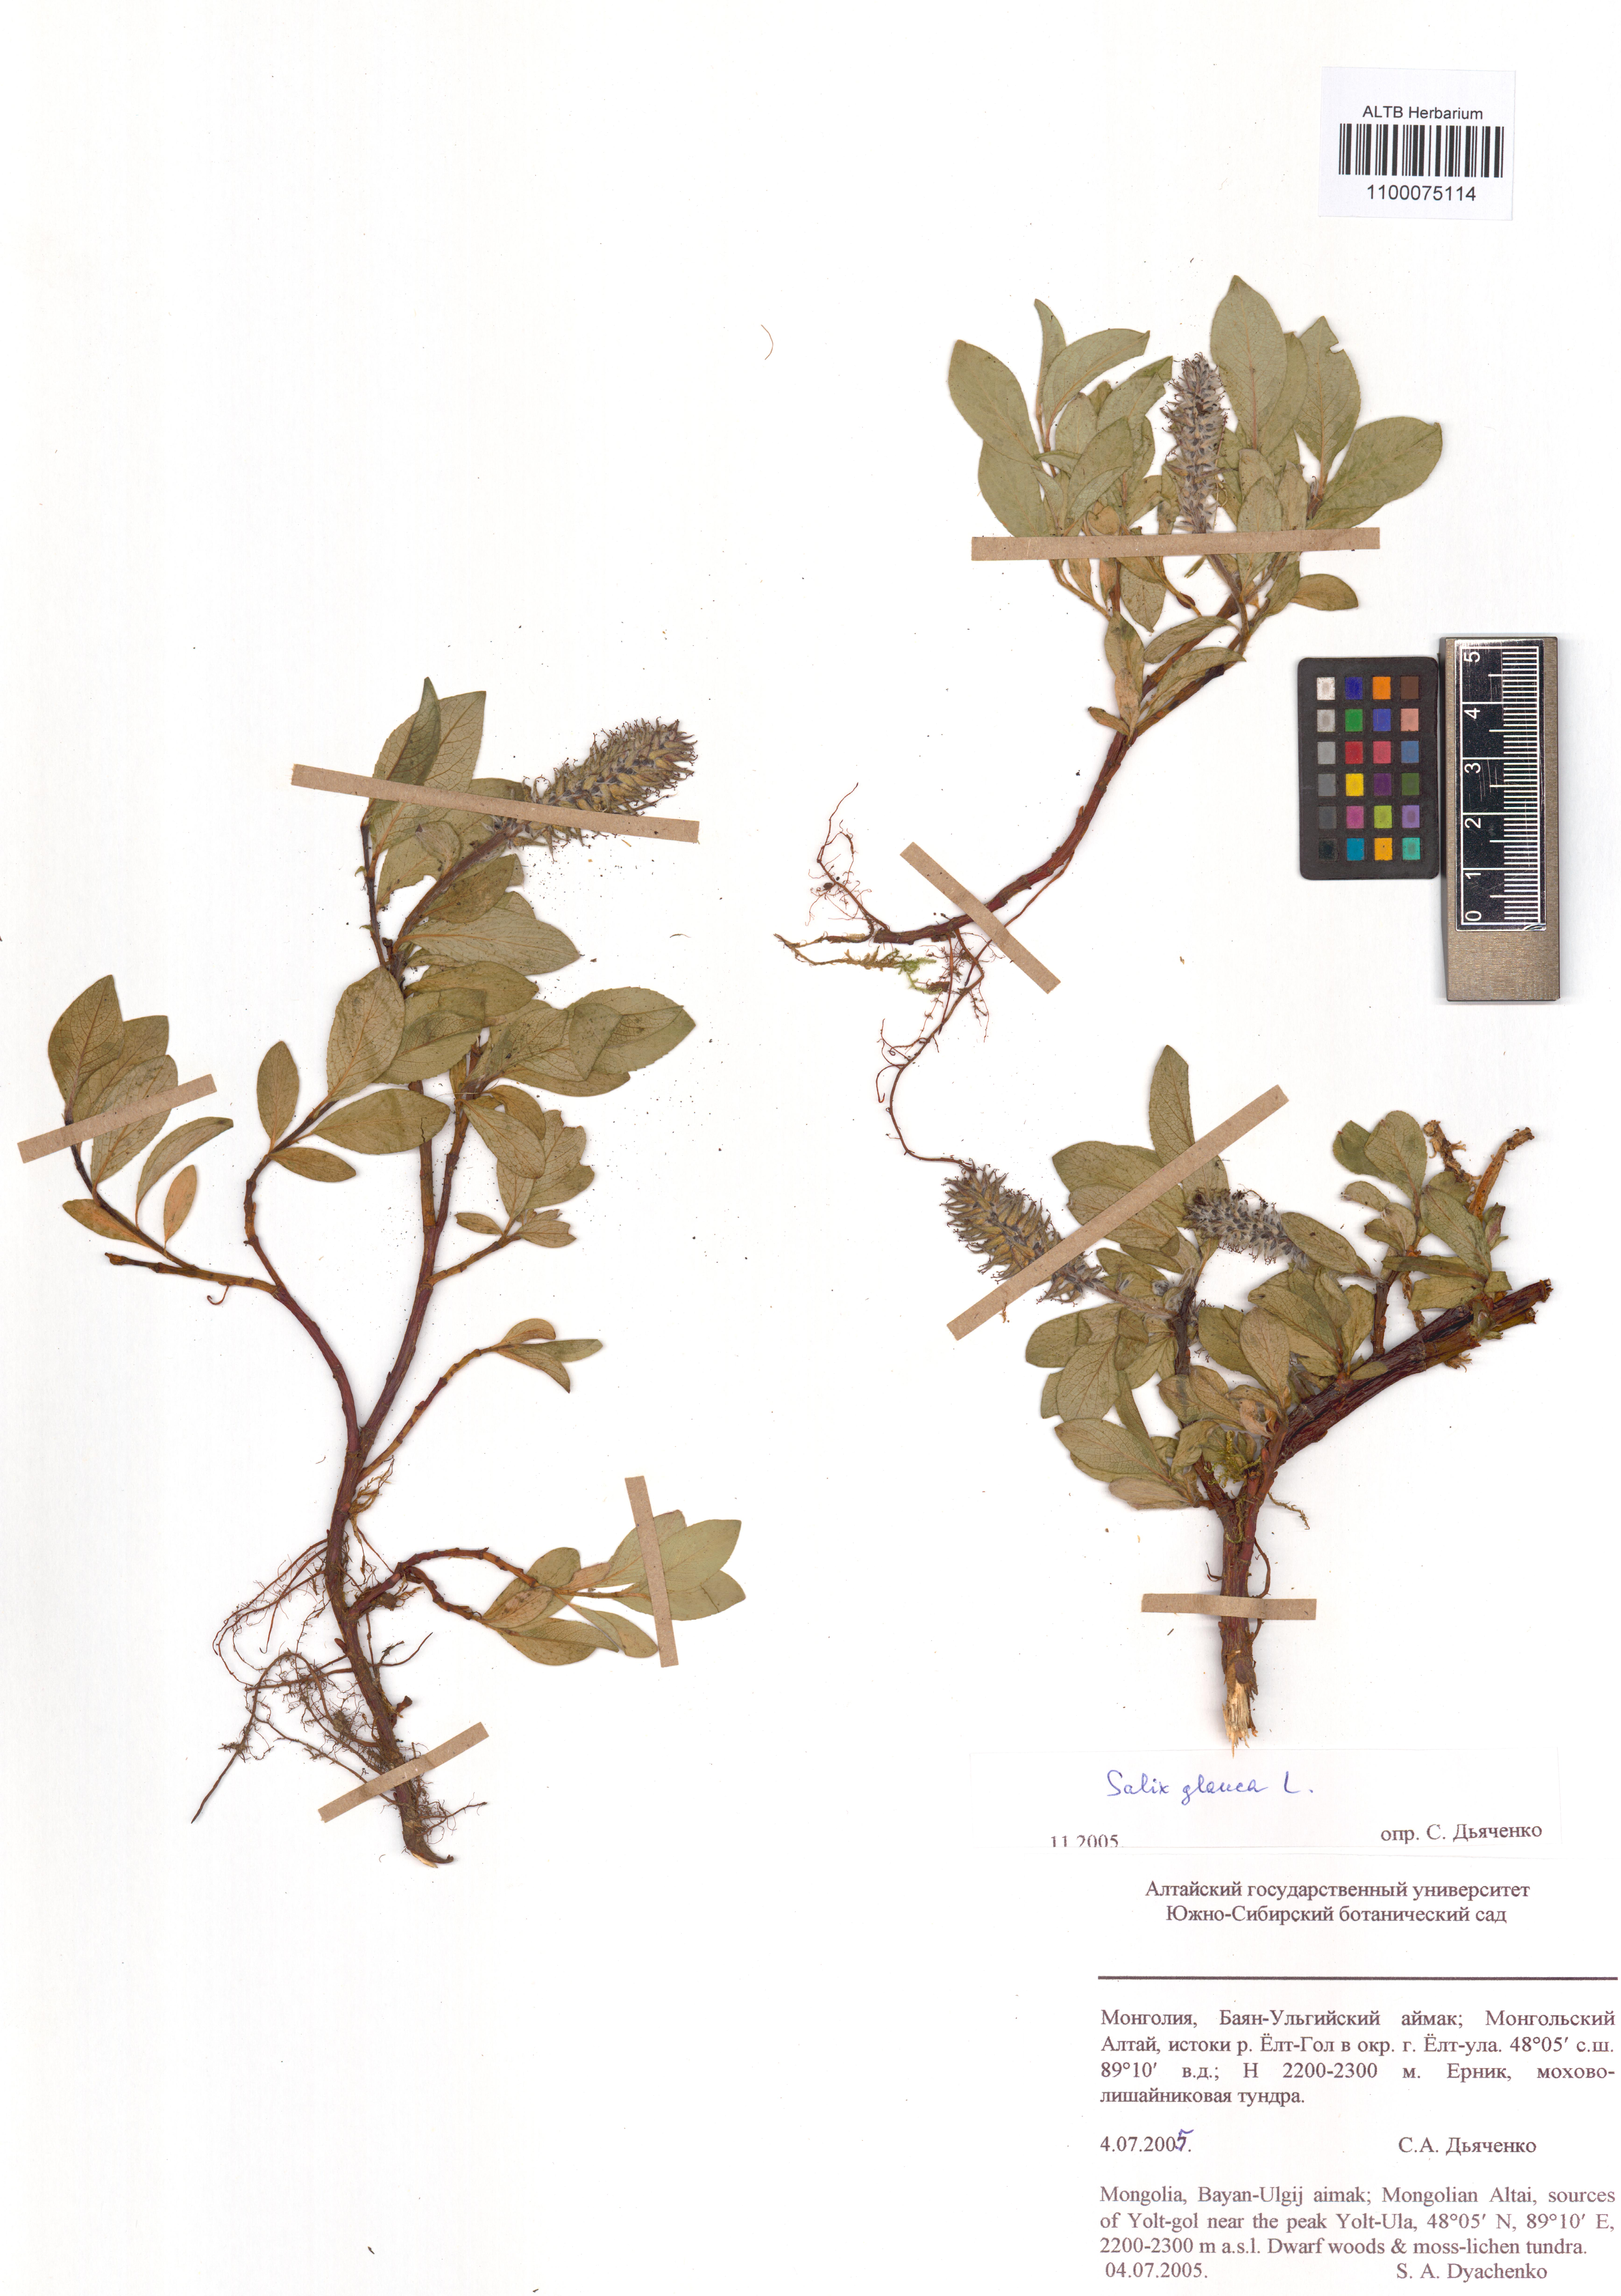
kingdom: Plantae
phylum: Tracheophyta
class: Magnoliopsida
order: Malpighiales
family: Salicaceae
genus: Salix
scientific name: Salix glauca
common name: Glaucous willow
